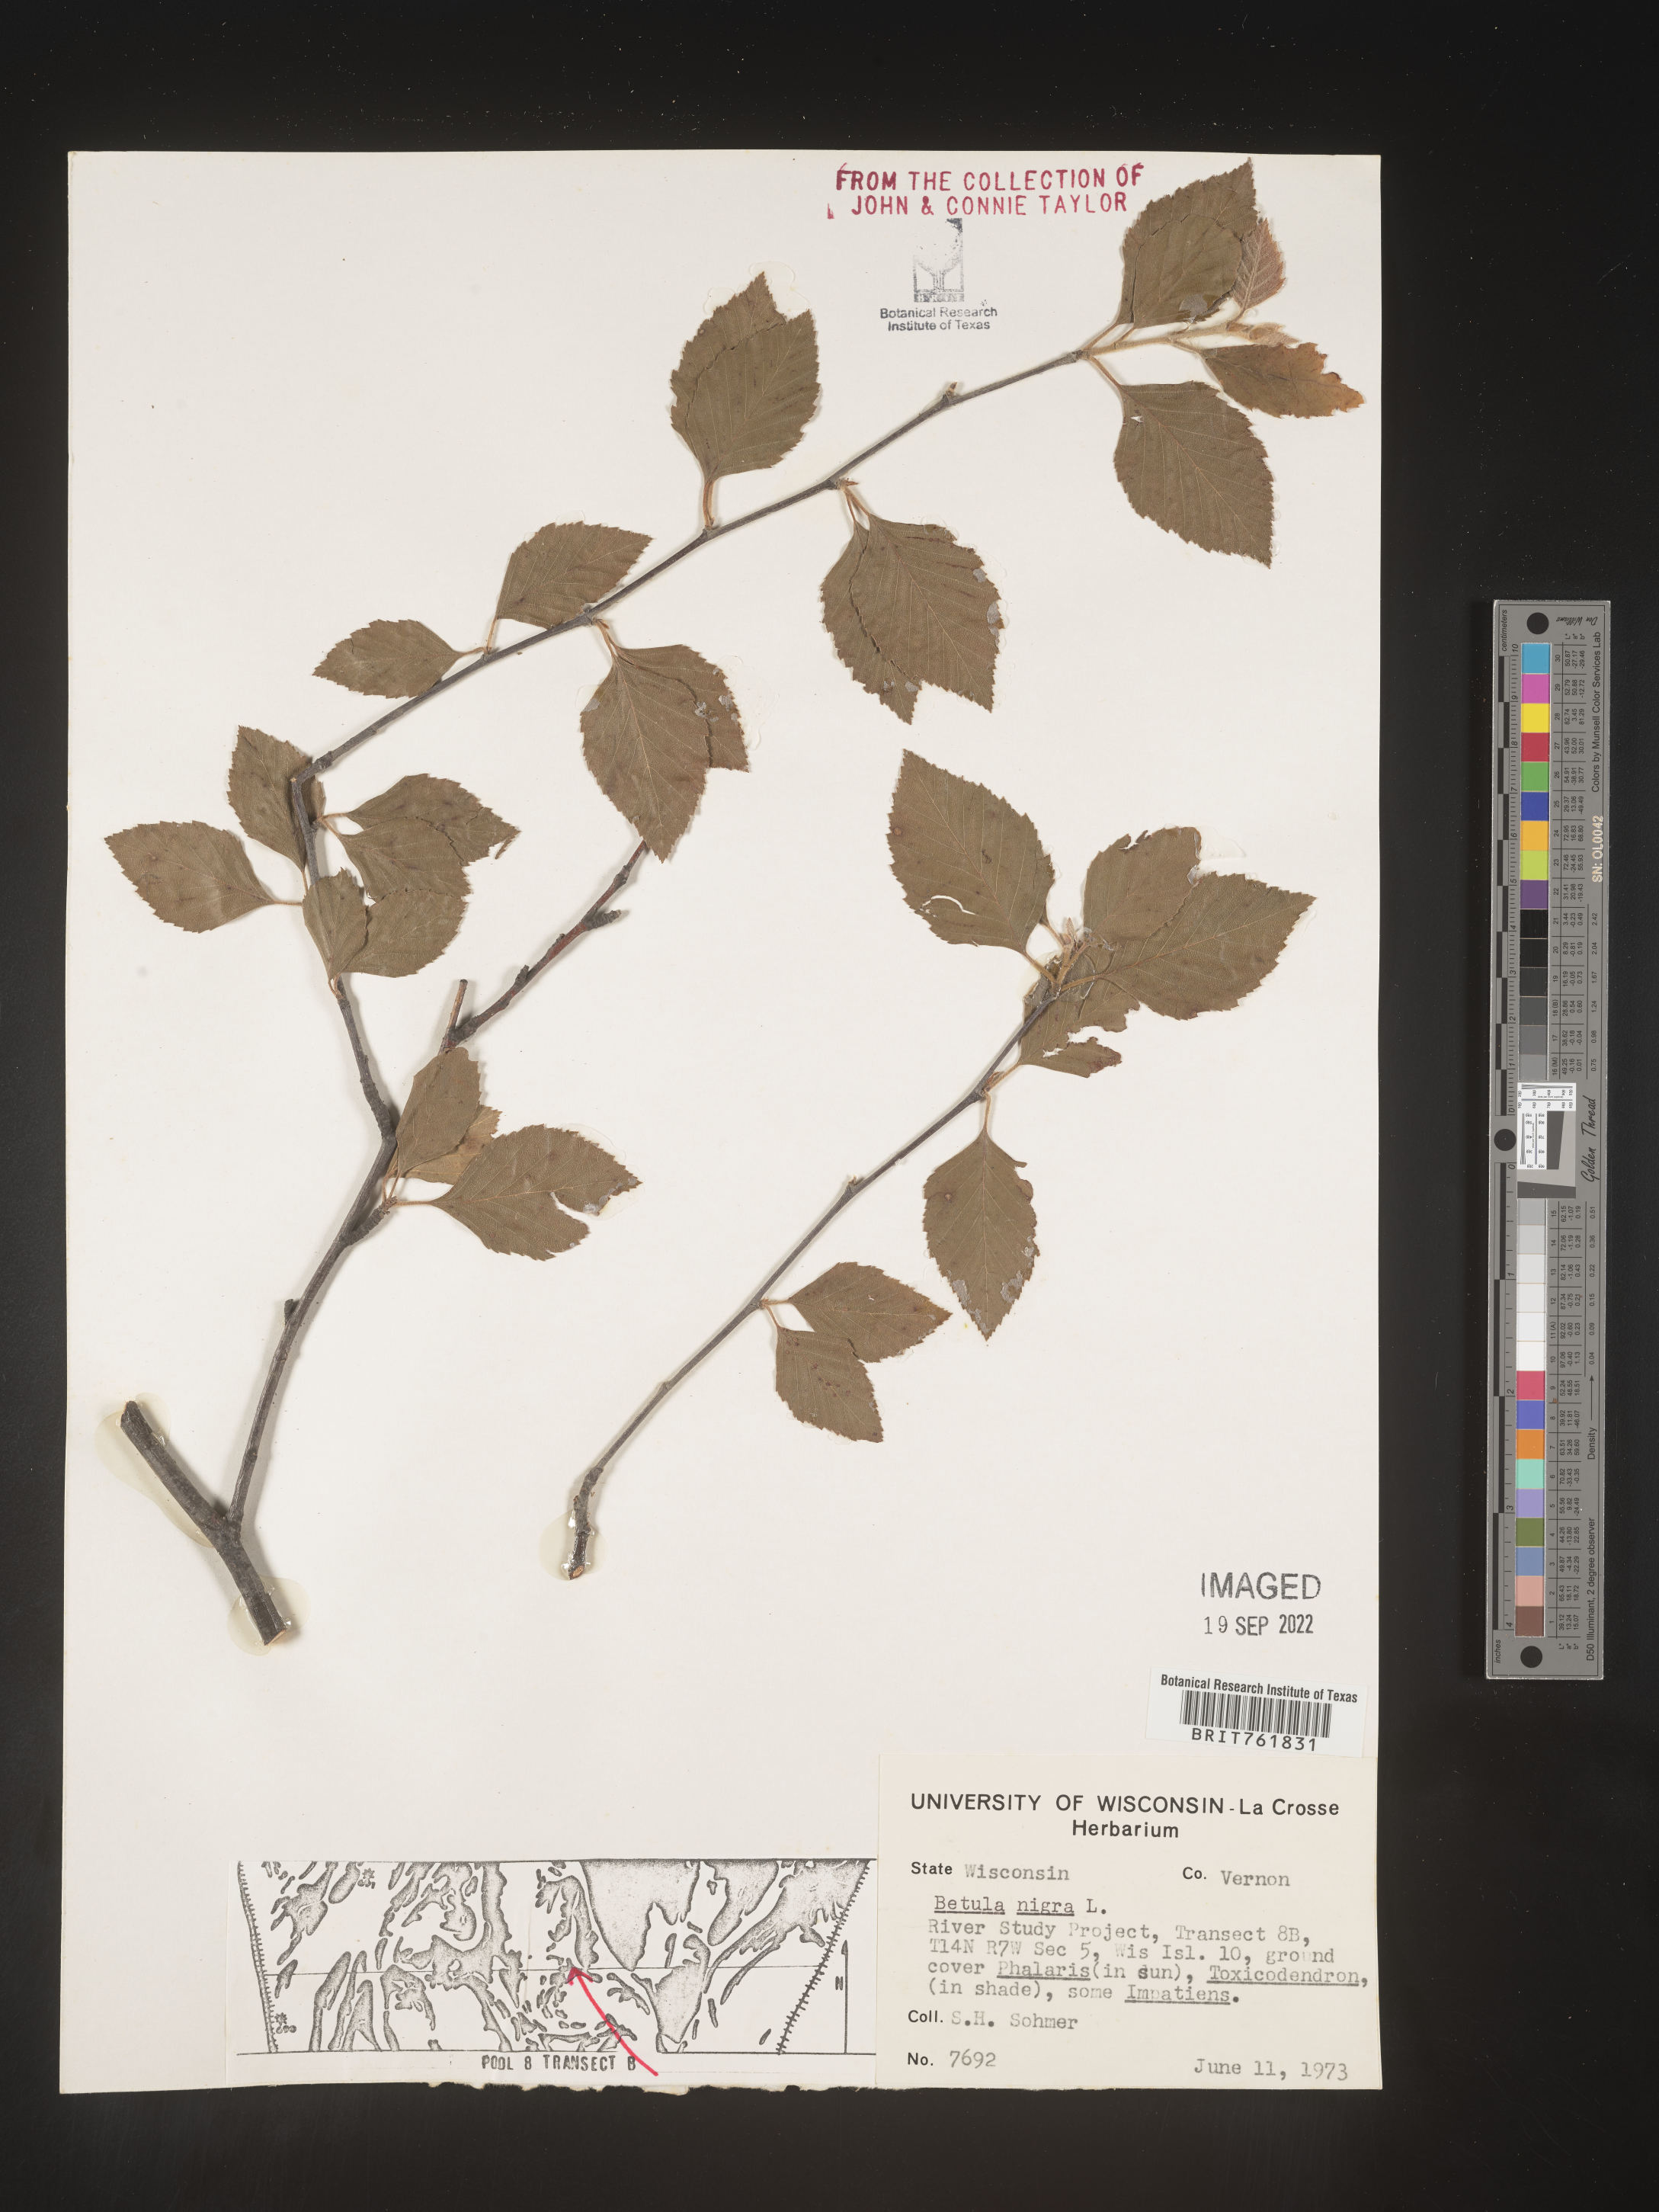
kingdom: Plantae
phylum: Tracheophyta
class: Magnoliopsida
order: Fagales
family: Betulaceae
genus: Betula
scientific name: Betula nigra
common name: Black birch
